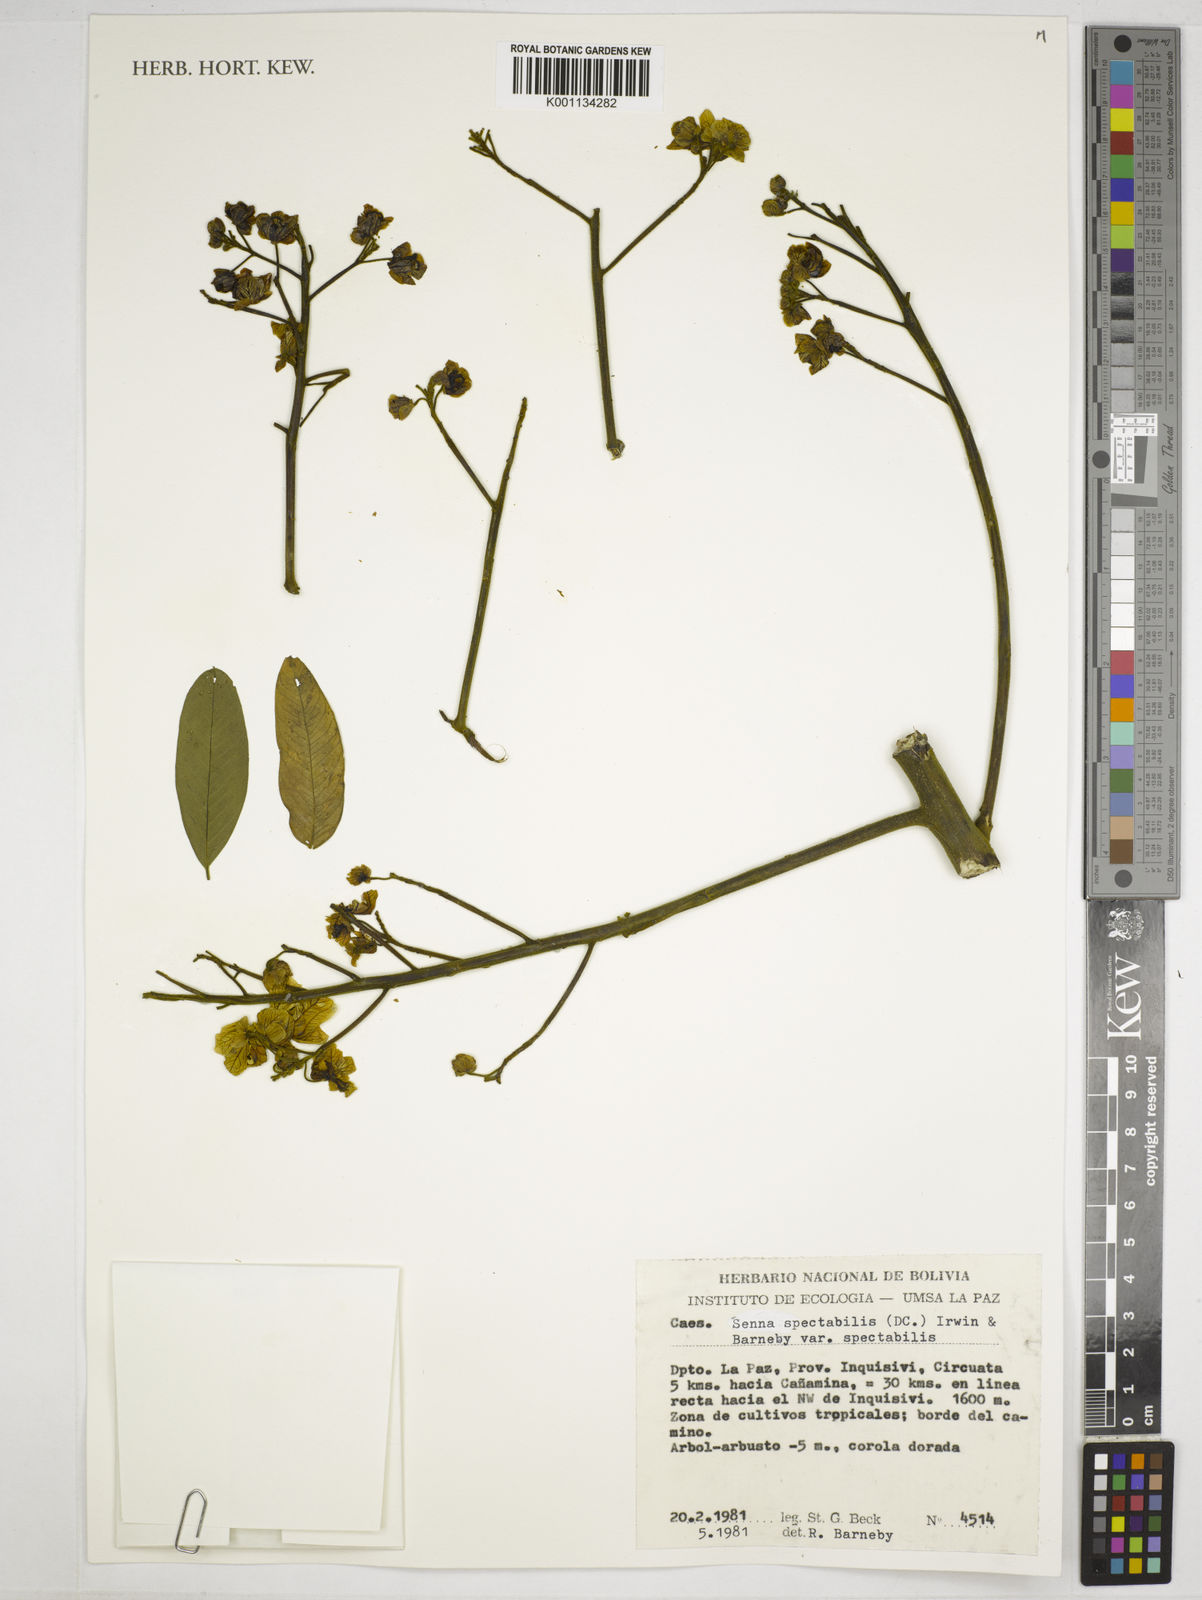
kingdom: Plantae
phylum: Tracheophyta
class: Magnoliopsida
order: Fabales
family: Fabaceae
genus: Senna
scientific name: Senna spectabilis
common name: Casia amarilla
